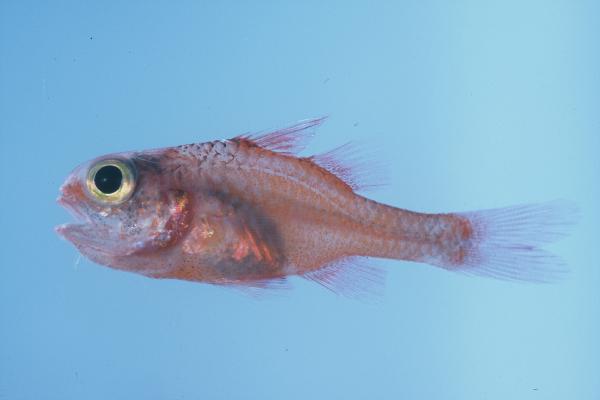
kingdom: Animalia
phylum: Chordata
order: Perciformes
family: Apogonidae
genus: Apogon
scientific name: Apogon campbelli
